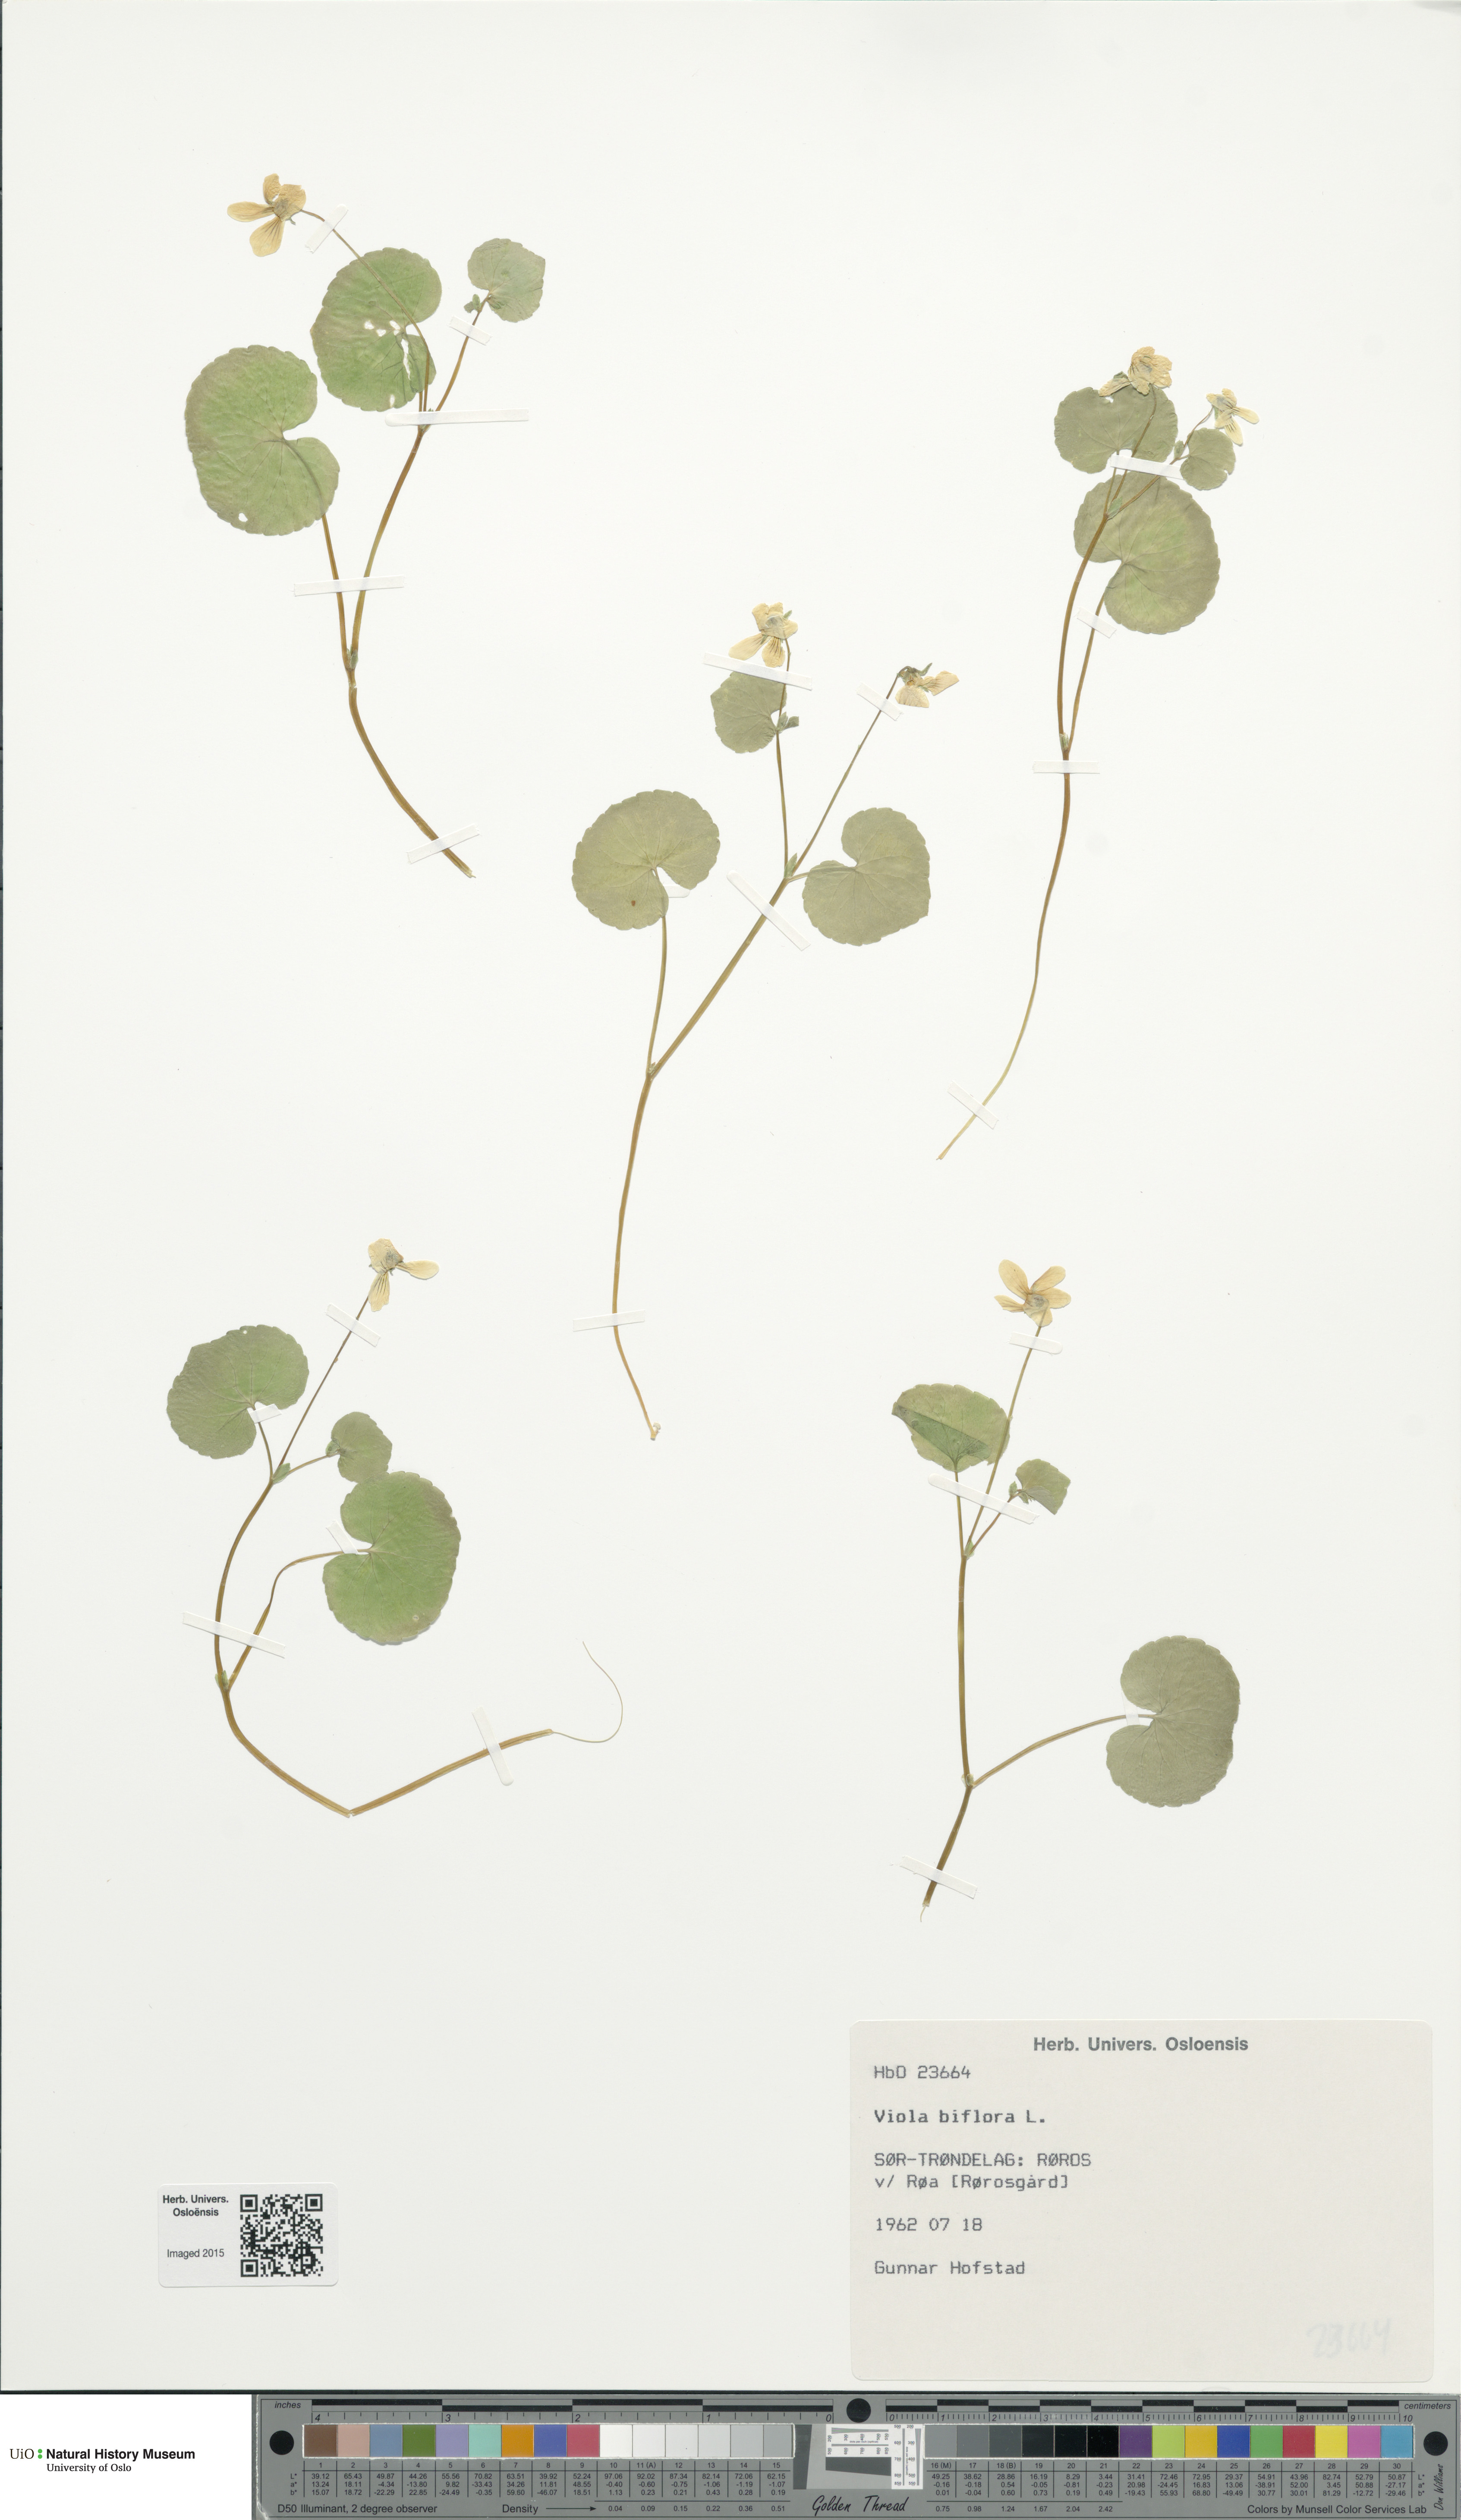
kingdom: Plantae
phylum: Tracheophyta
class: Magnoliopsida
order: Malpighiales
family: Violaceae
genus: Viola
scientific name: Viola biflora
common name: Alpine yellow violet
